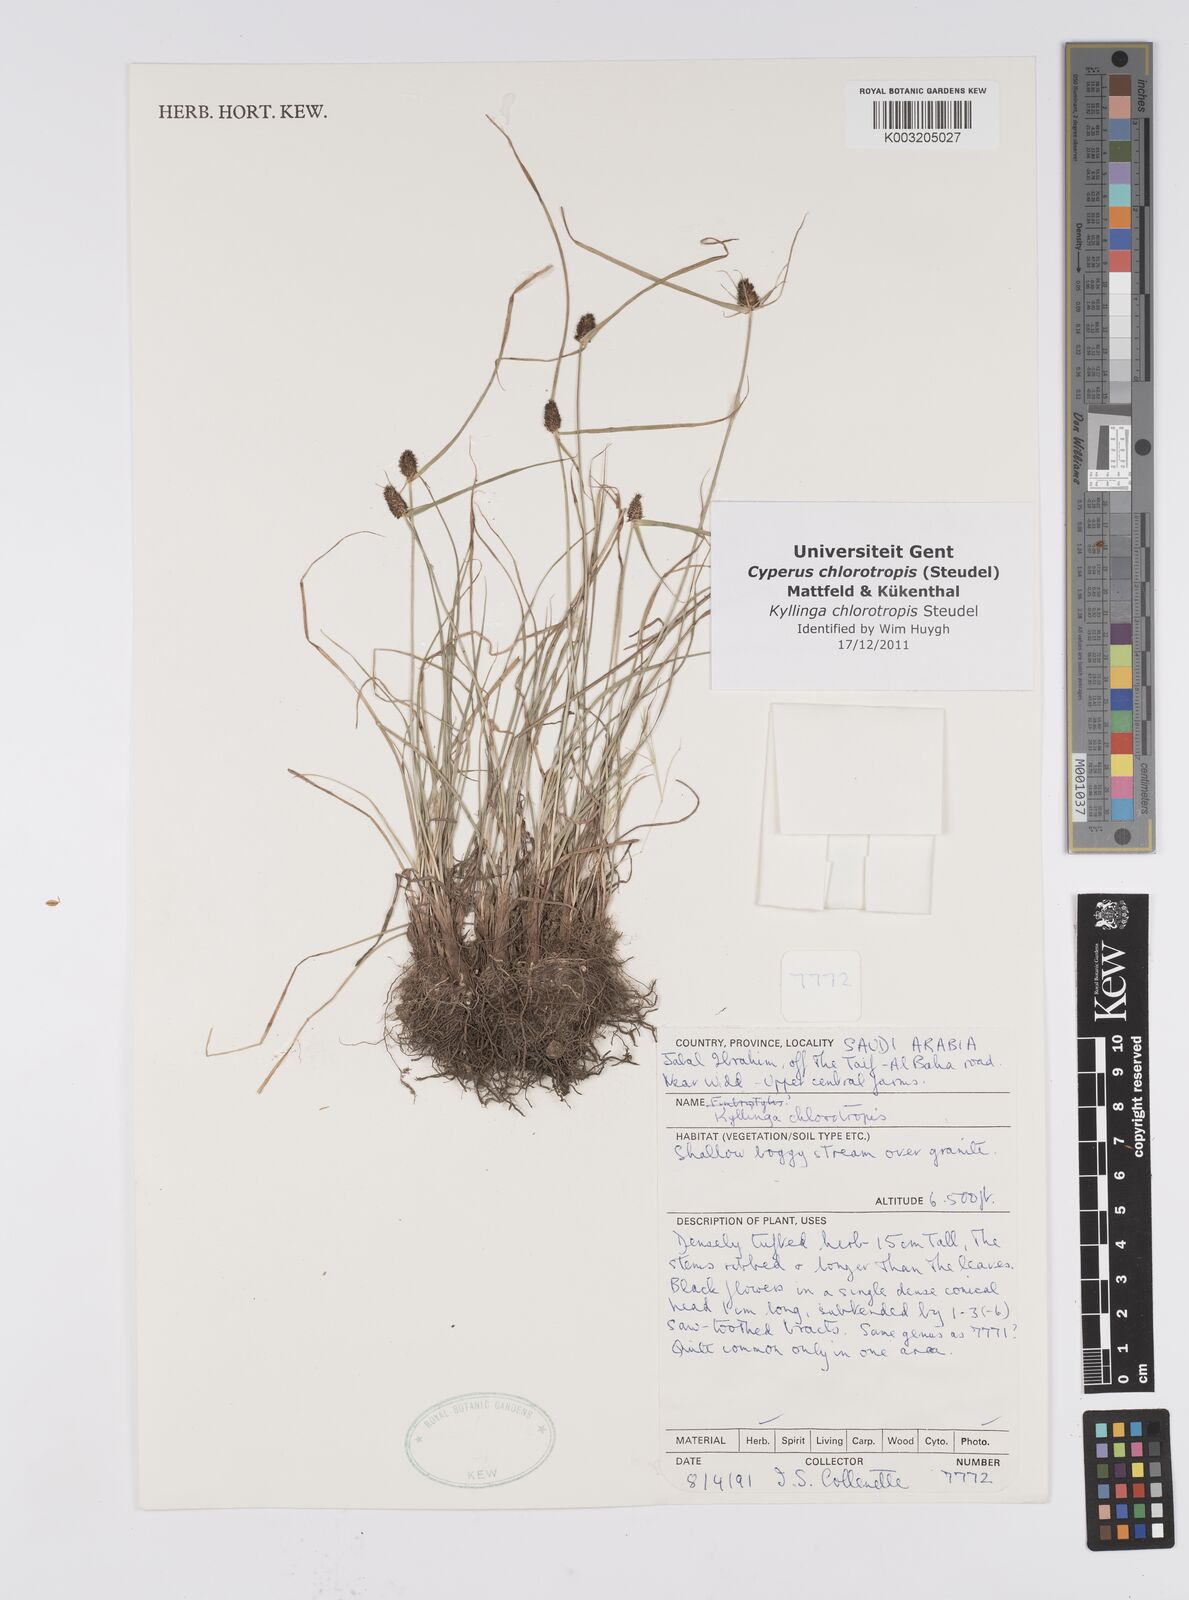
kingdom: Plantae
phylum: Tracheophyta
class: Liliopsida
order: Poales
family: Cyperaceae
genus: Cyperus
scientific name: Cyperus chlorotropis
